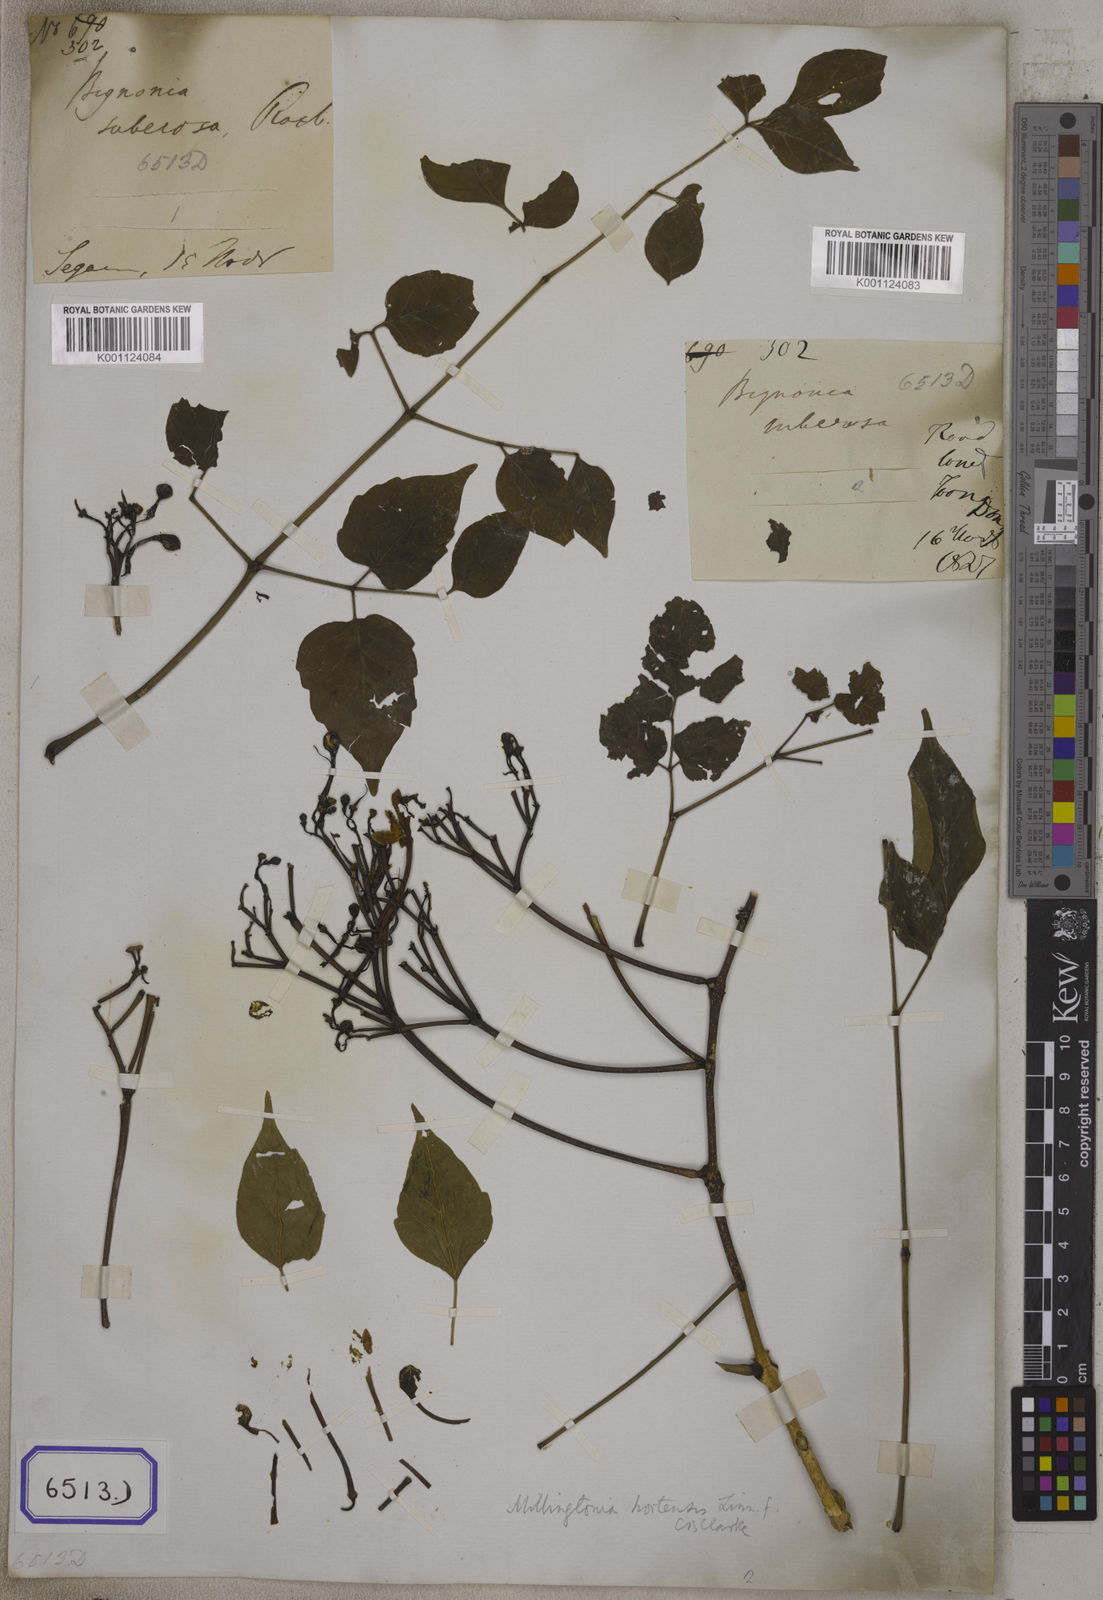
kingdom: Plantae
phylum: Tracheophyta
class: Magnoliopsida
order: Lamiales
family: Bignoniaceae
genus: Bignonia
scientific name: Bignonia
